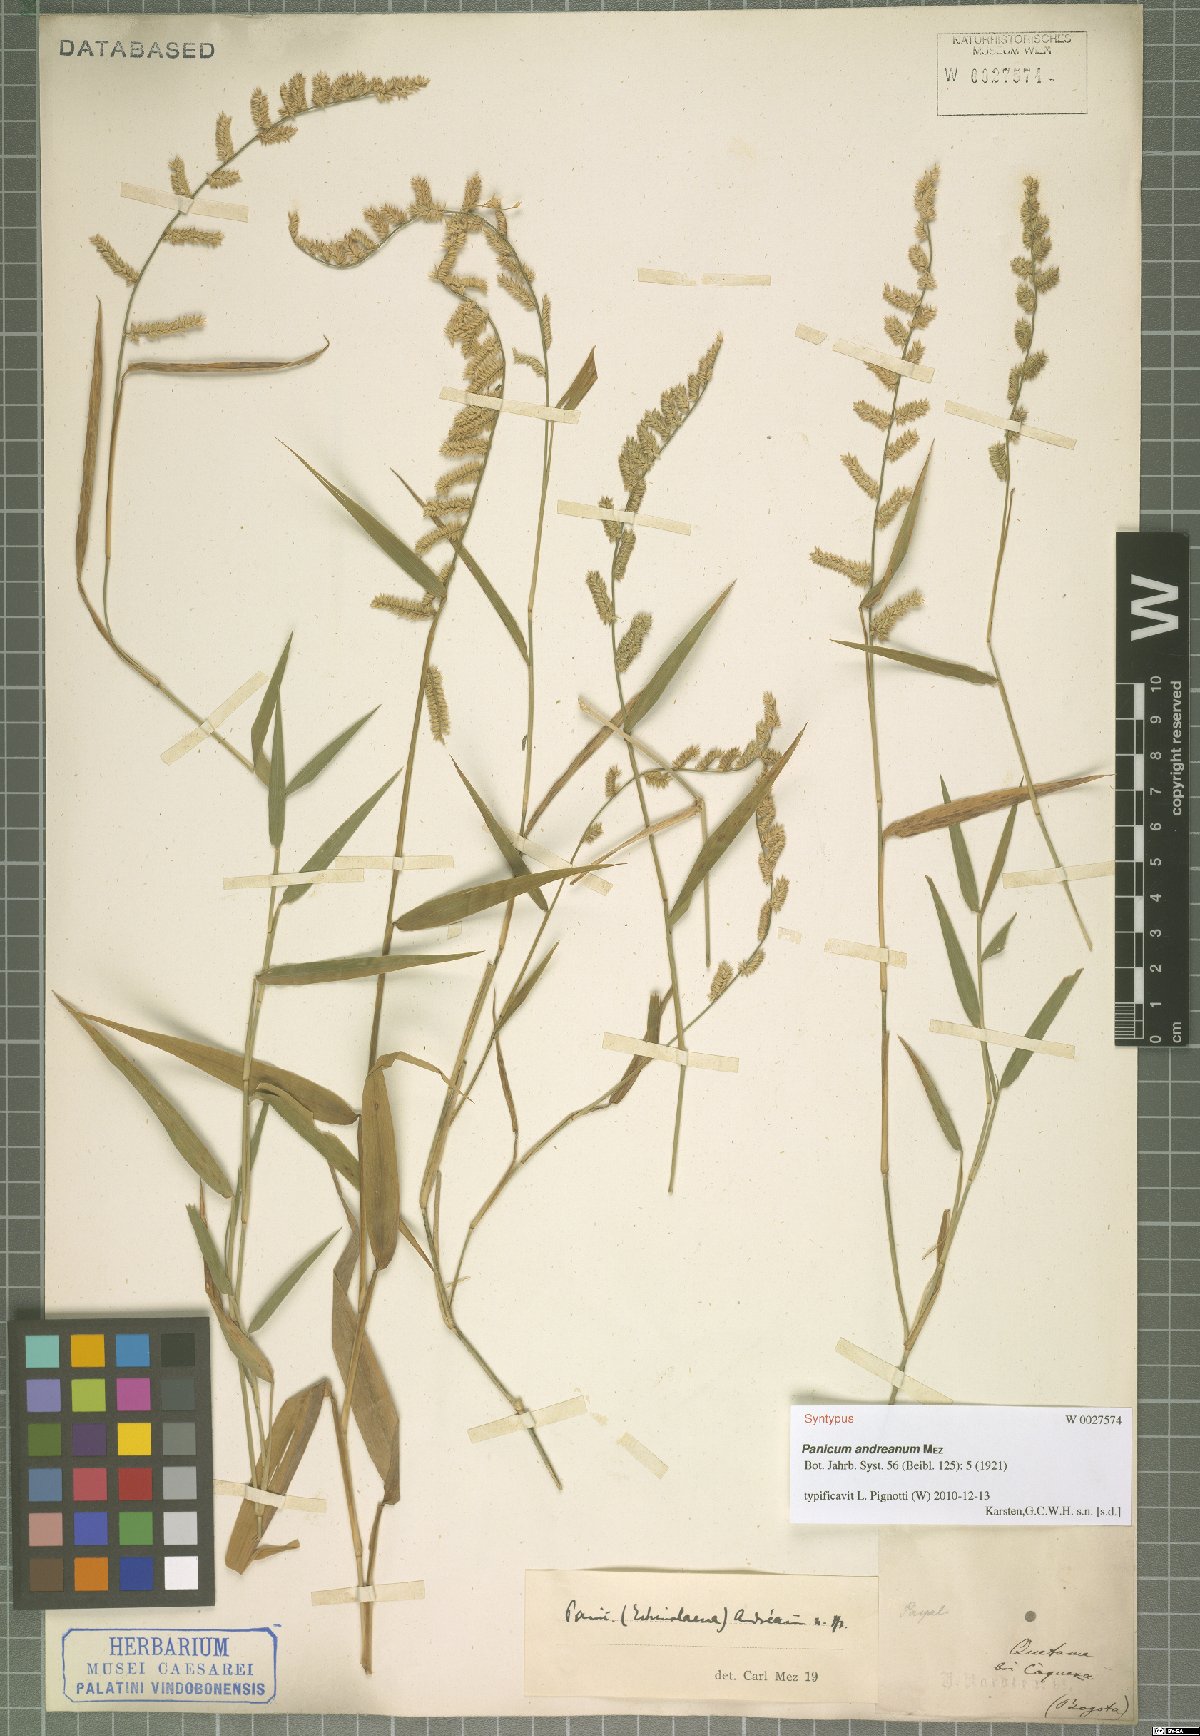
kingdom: Plantae
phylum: Tracheophyta
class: Liliopsida
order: Poales
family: Poaceae
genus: Ocellochloa
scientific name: Ocellochloa andreana
